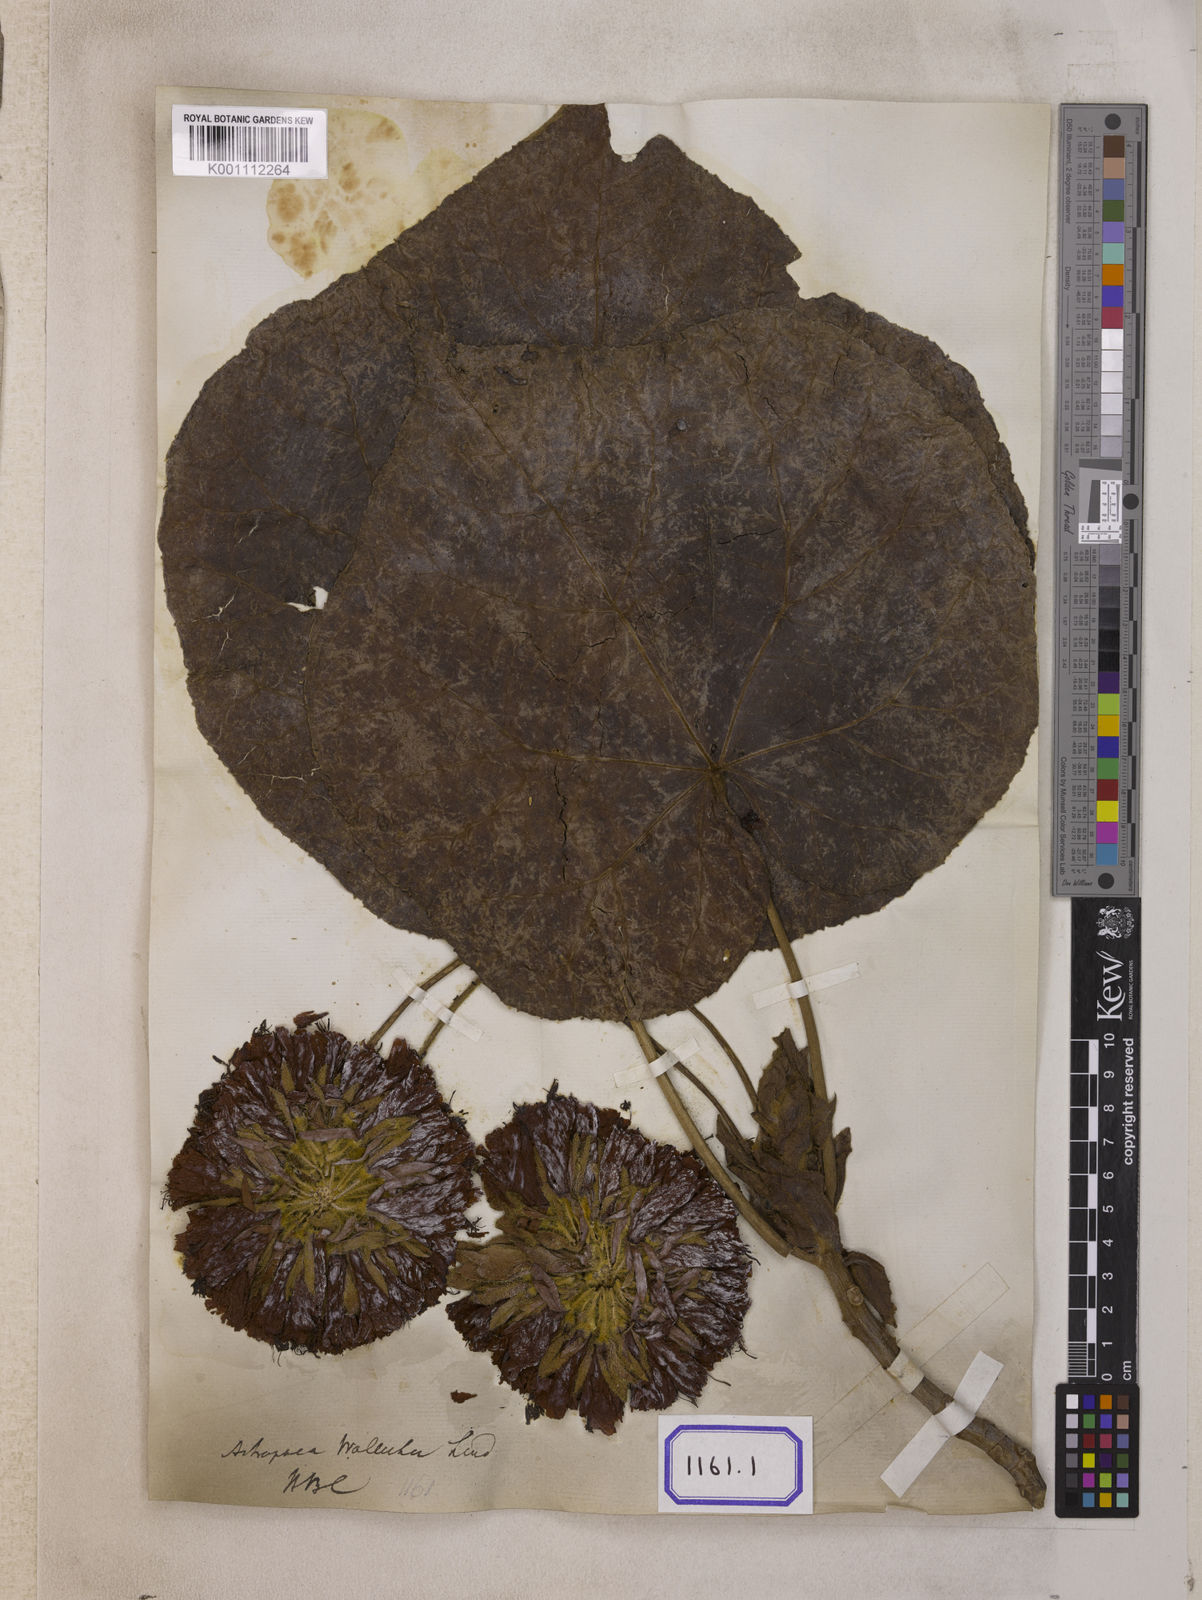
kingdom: Plantae
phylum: Tracheophyta
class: Magnoliopsida
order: Malvales
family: Malvaceae
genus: Dombeya
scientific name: Dombeya wallichii
